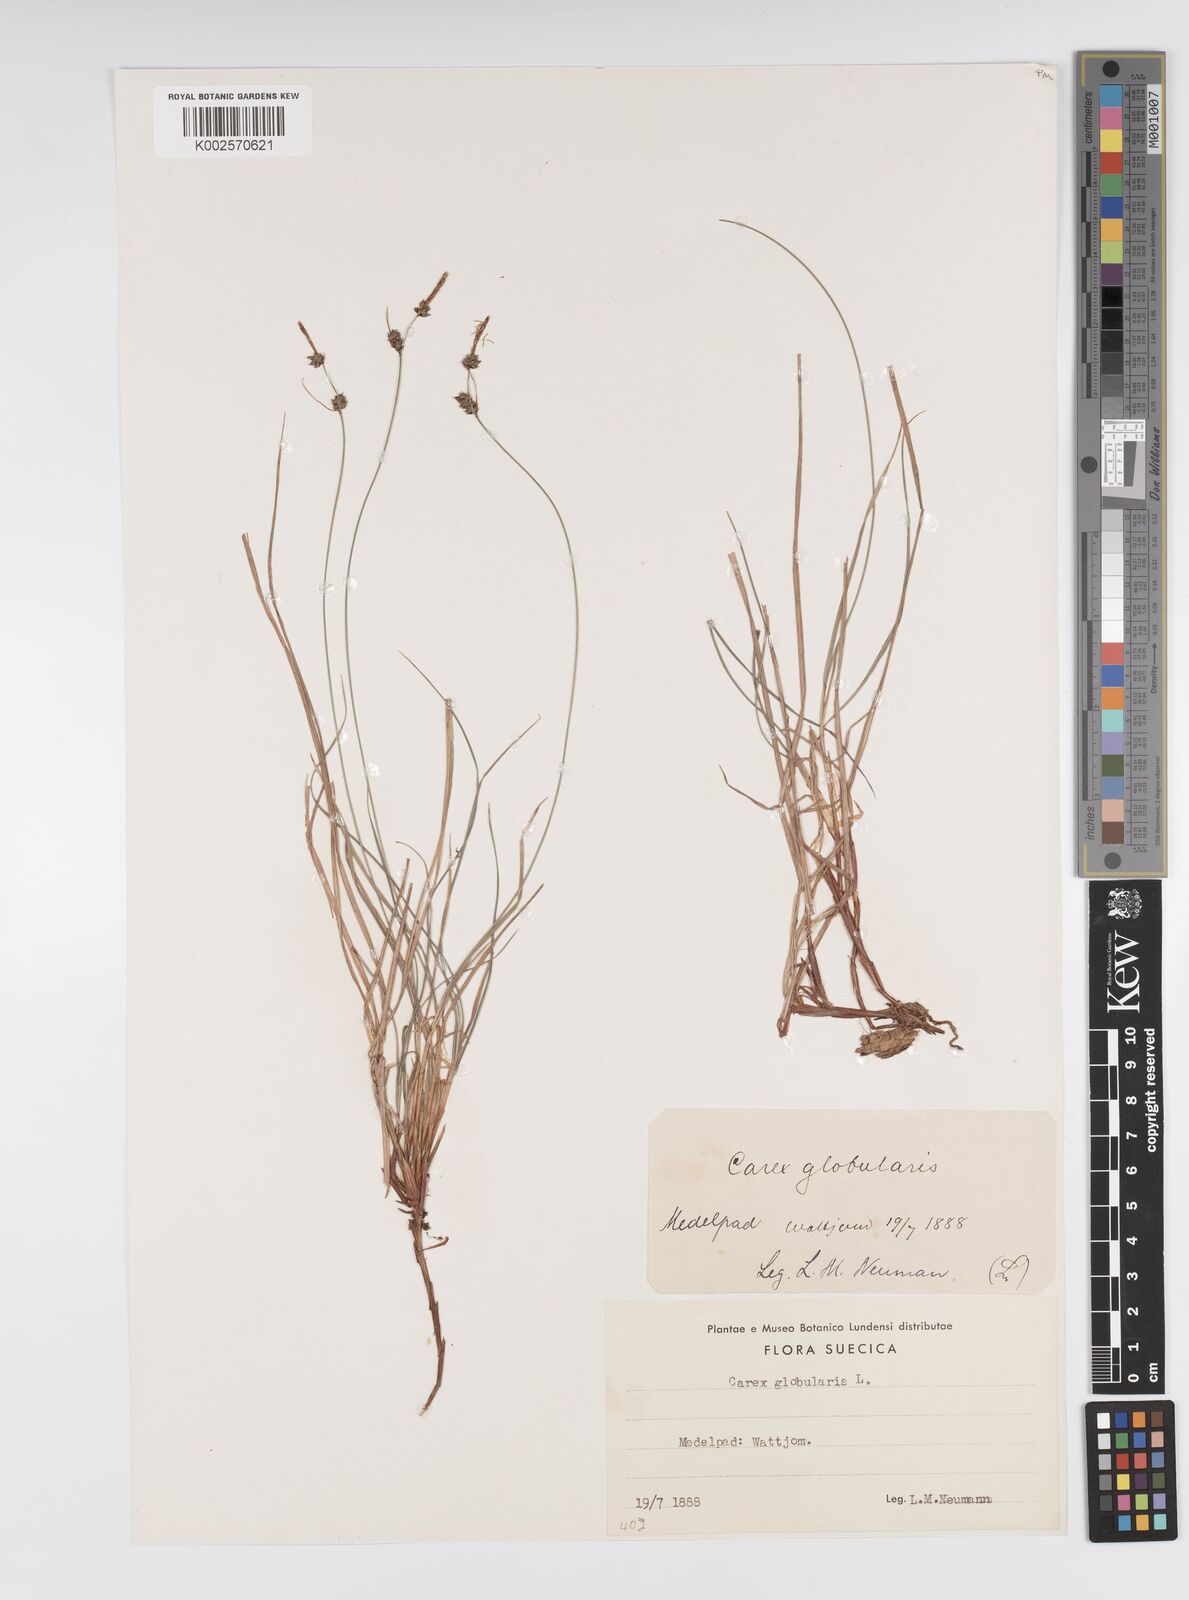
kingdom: Plantae
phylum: Tracheophyta
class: Liliopsida
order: Poales
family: Cyperaceae
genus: Carex
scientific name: Carex globularis
